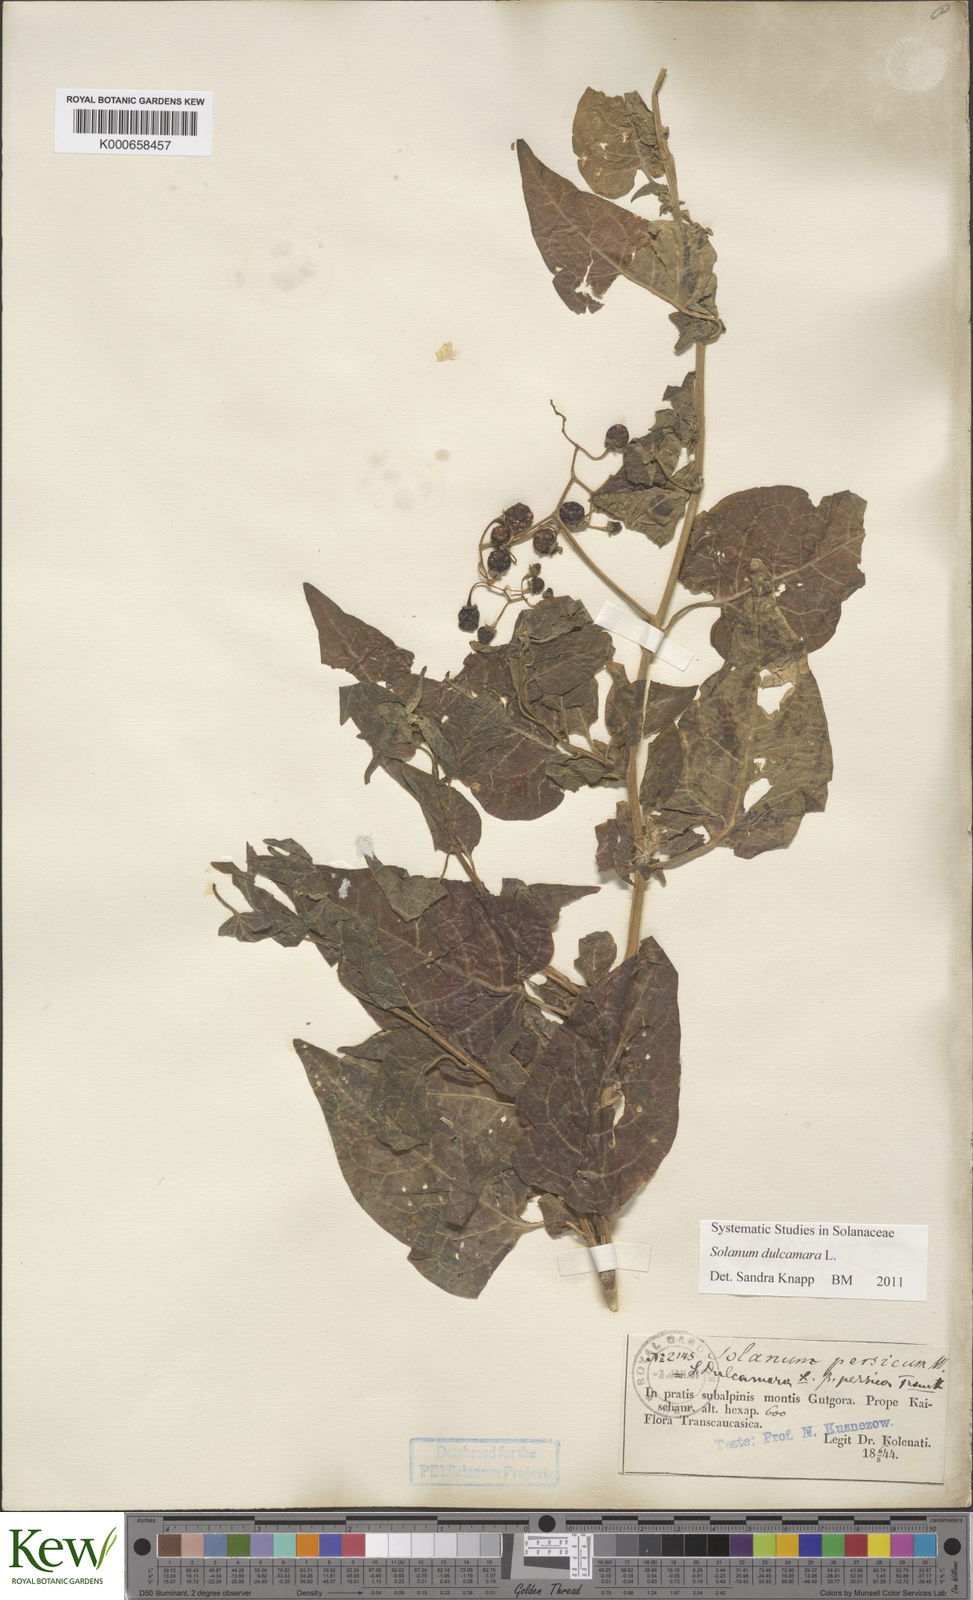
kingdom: Plantae
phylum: Tracheophyta
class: Magnoliopsida
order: Solanales
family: Solanaceae
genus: Solanum
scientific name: Solanum dulcamara
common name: Climbing nightshade
